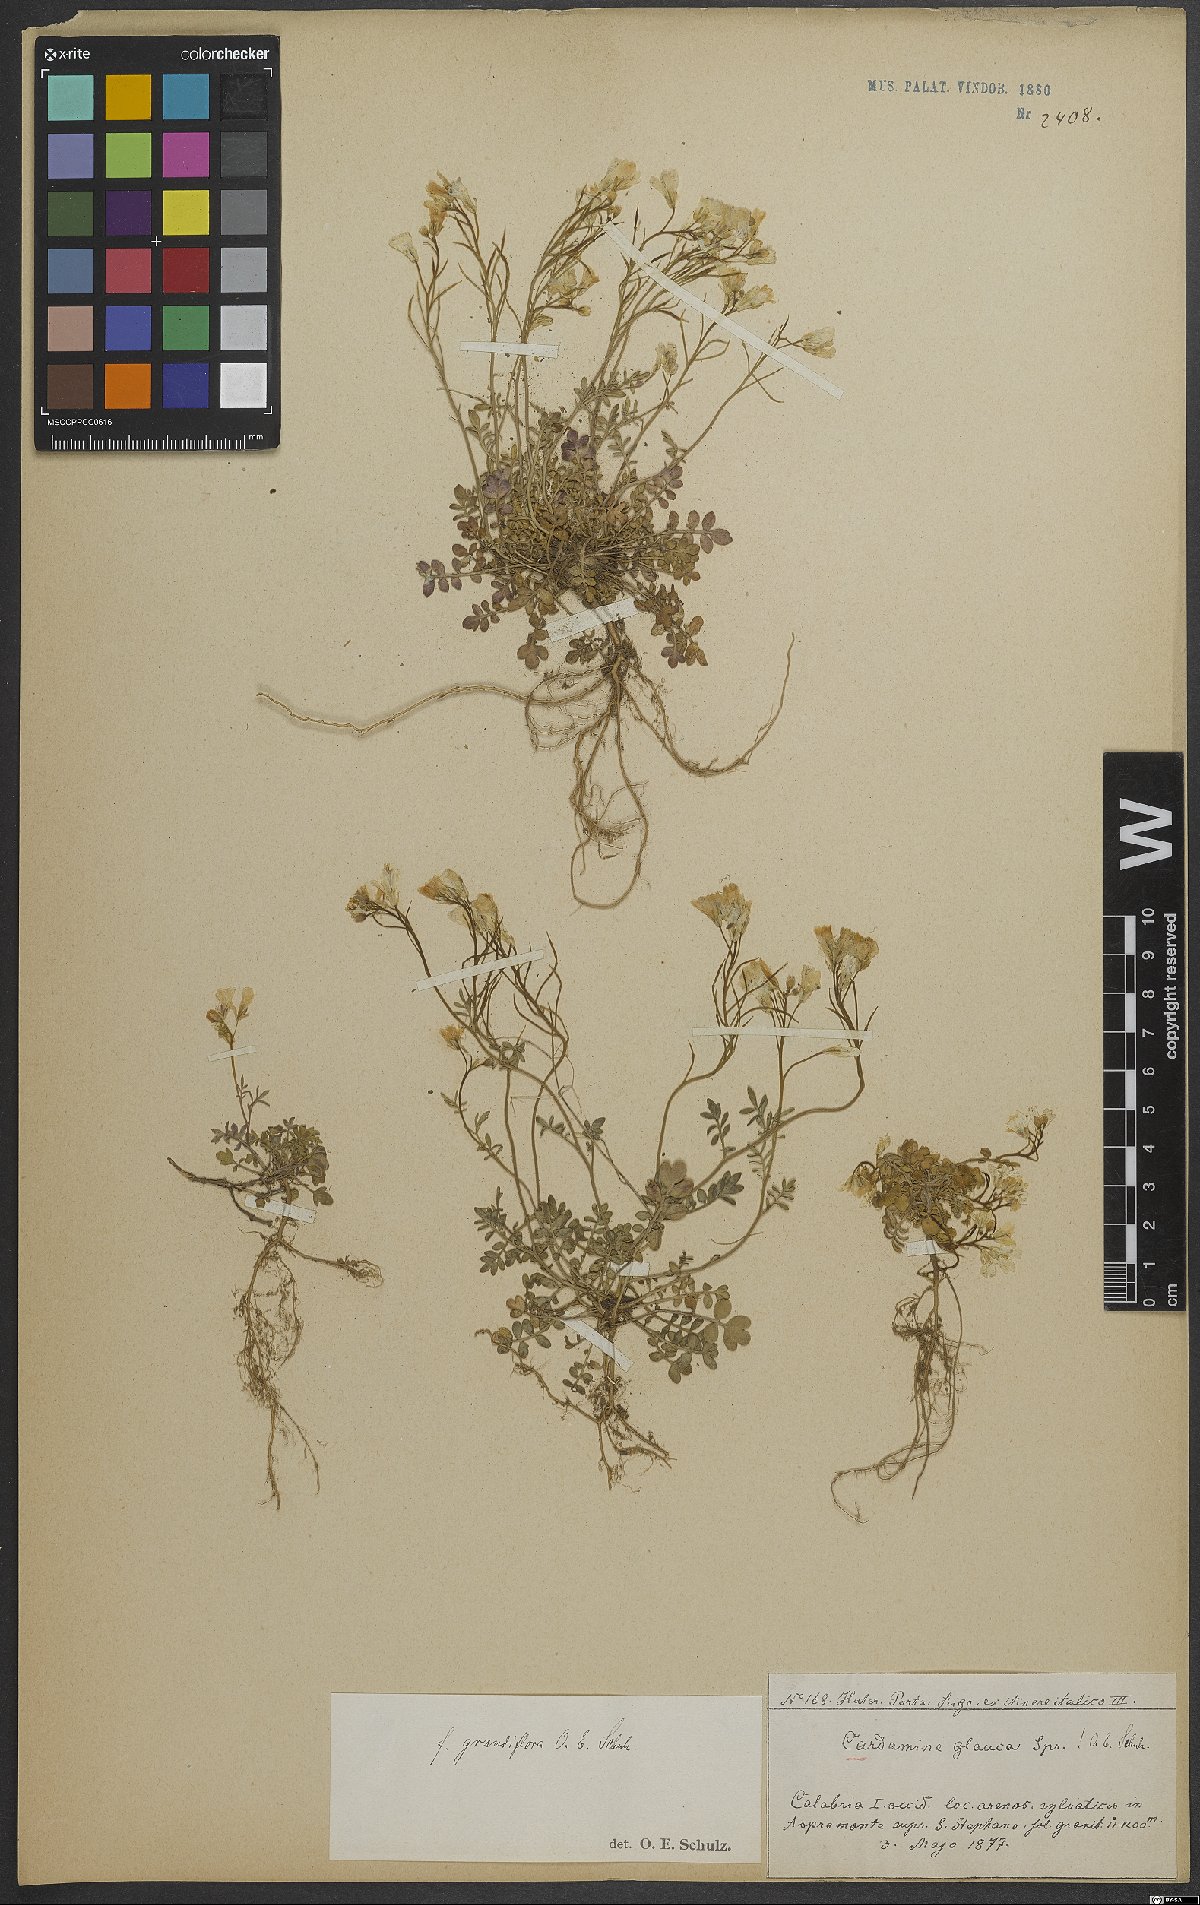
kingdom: Plantae
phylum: Tracheophyta
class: Magnoliopsida
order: Brassicales
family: Brassicaceae
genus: Cardamine
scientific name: Cardamine glauca
